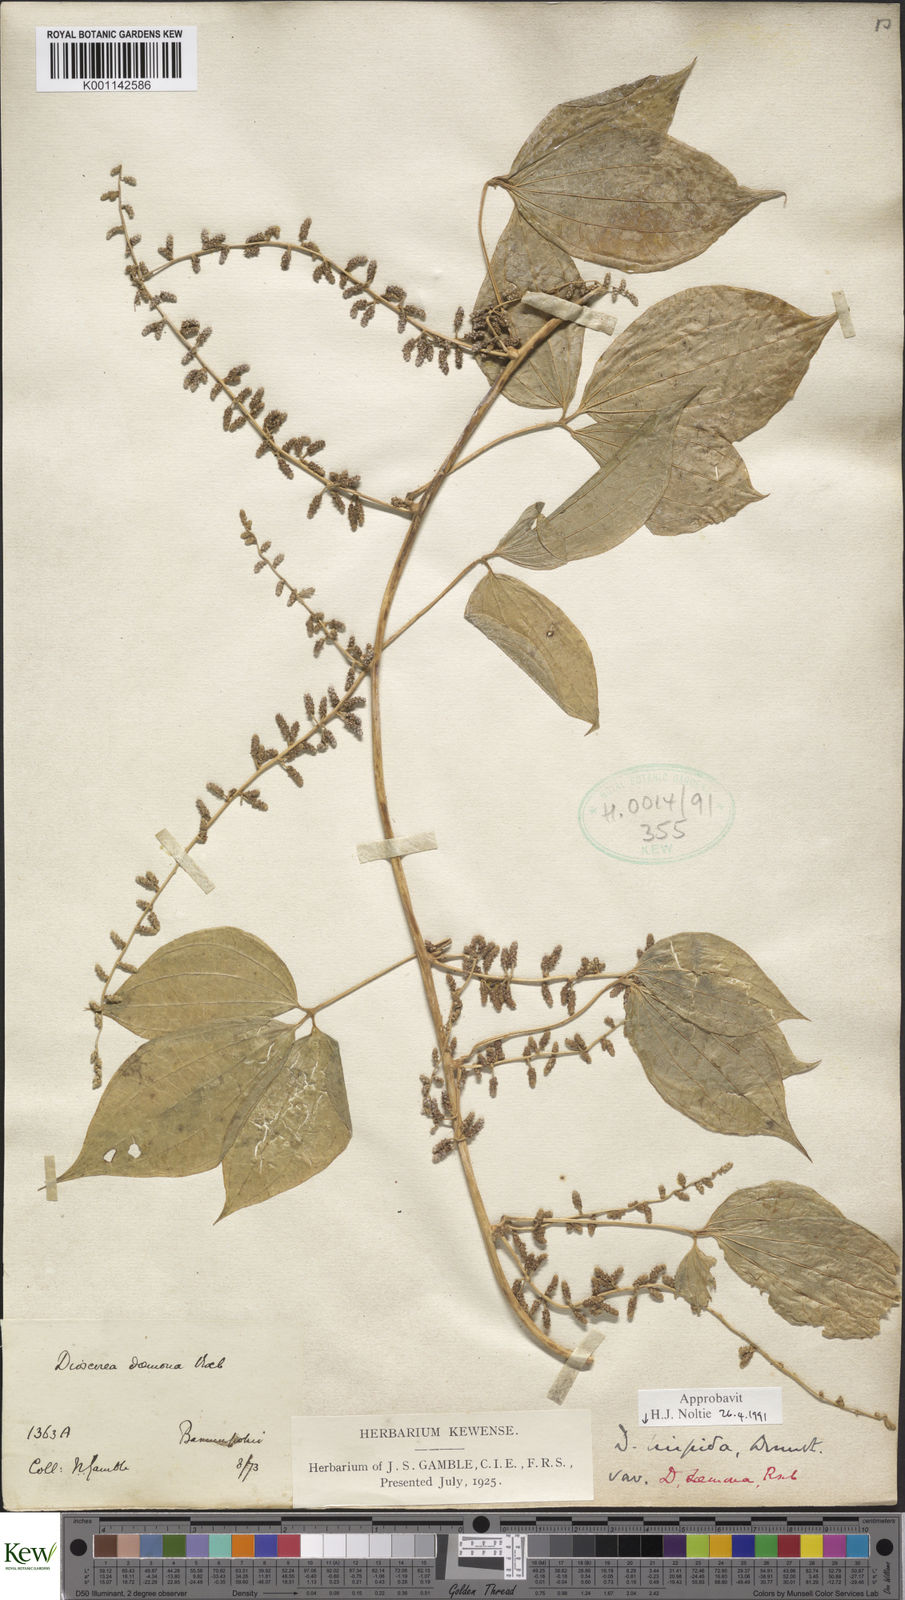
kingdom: Plantae
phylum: Tracheophyta
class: Liliopsida
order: Dioscoreales
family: Dioscoreaceae
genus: Dioscorea
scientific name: Dioscorea pentaphylla
